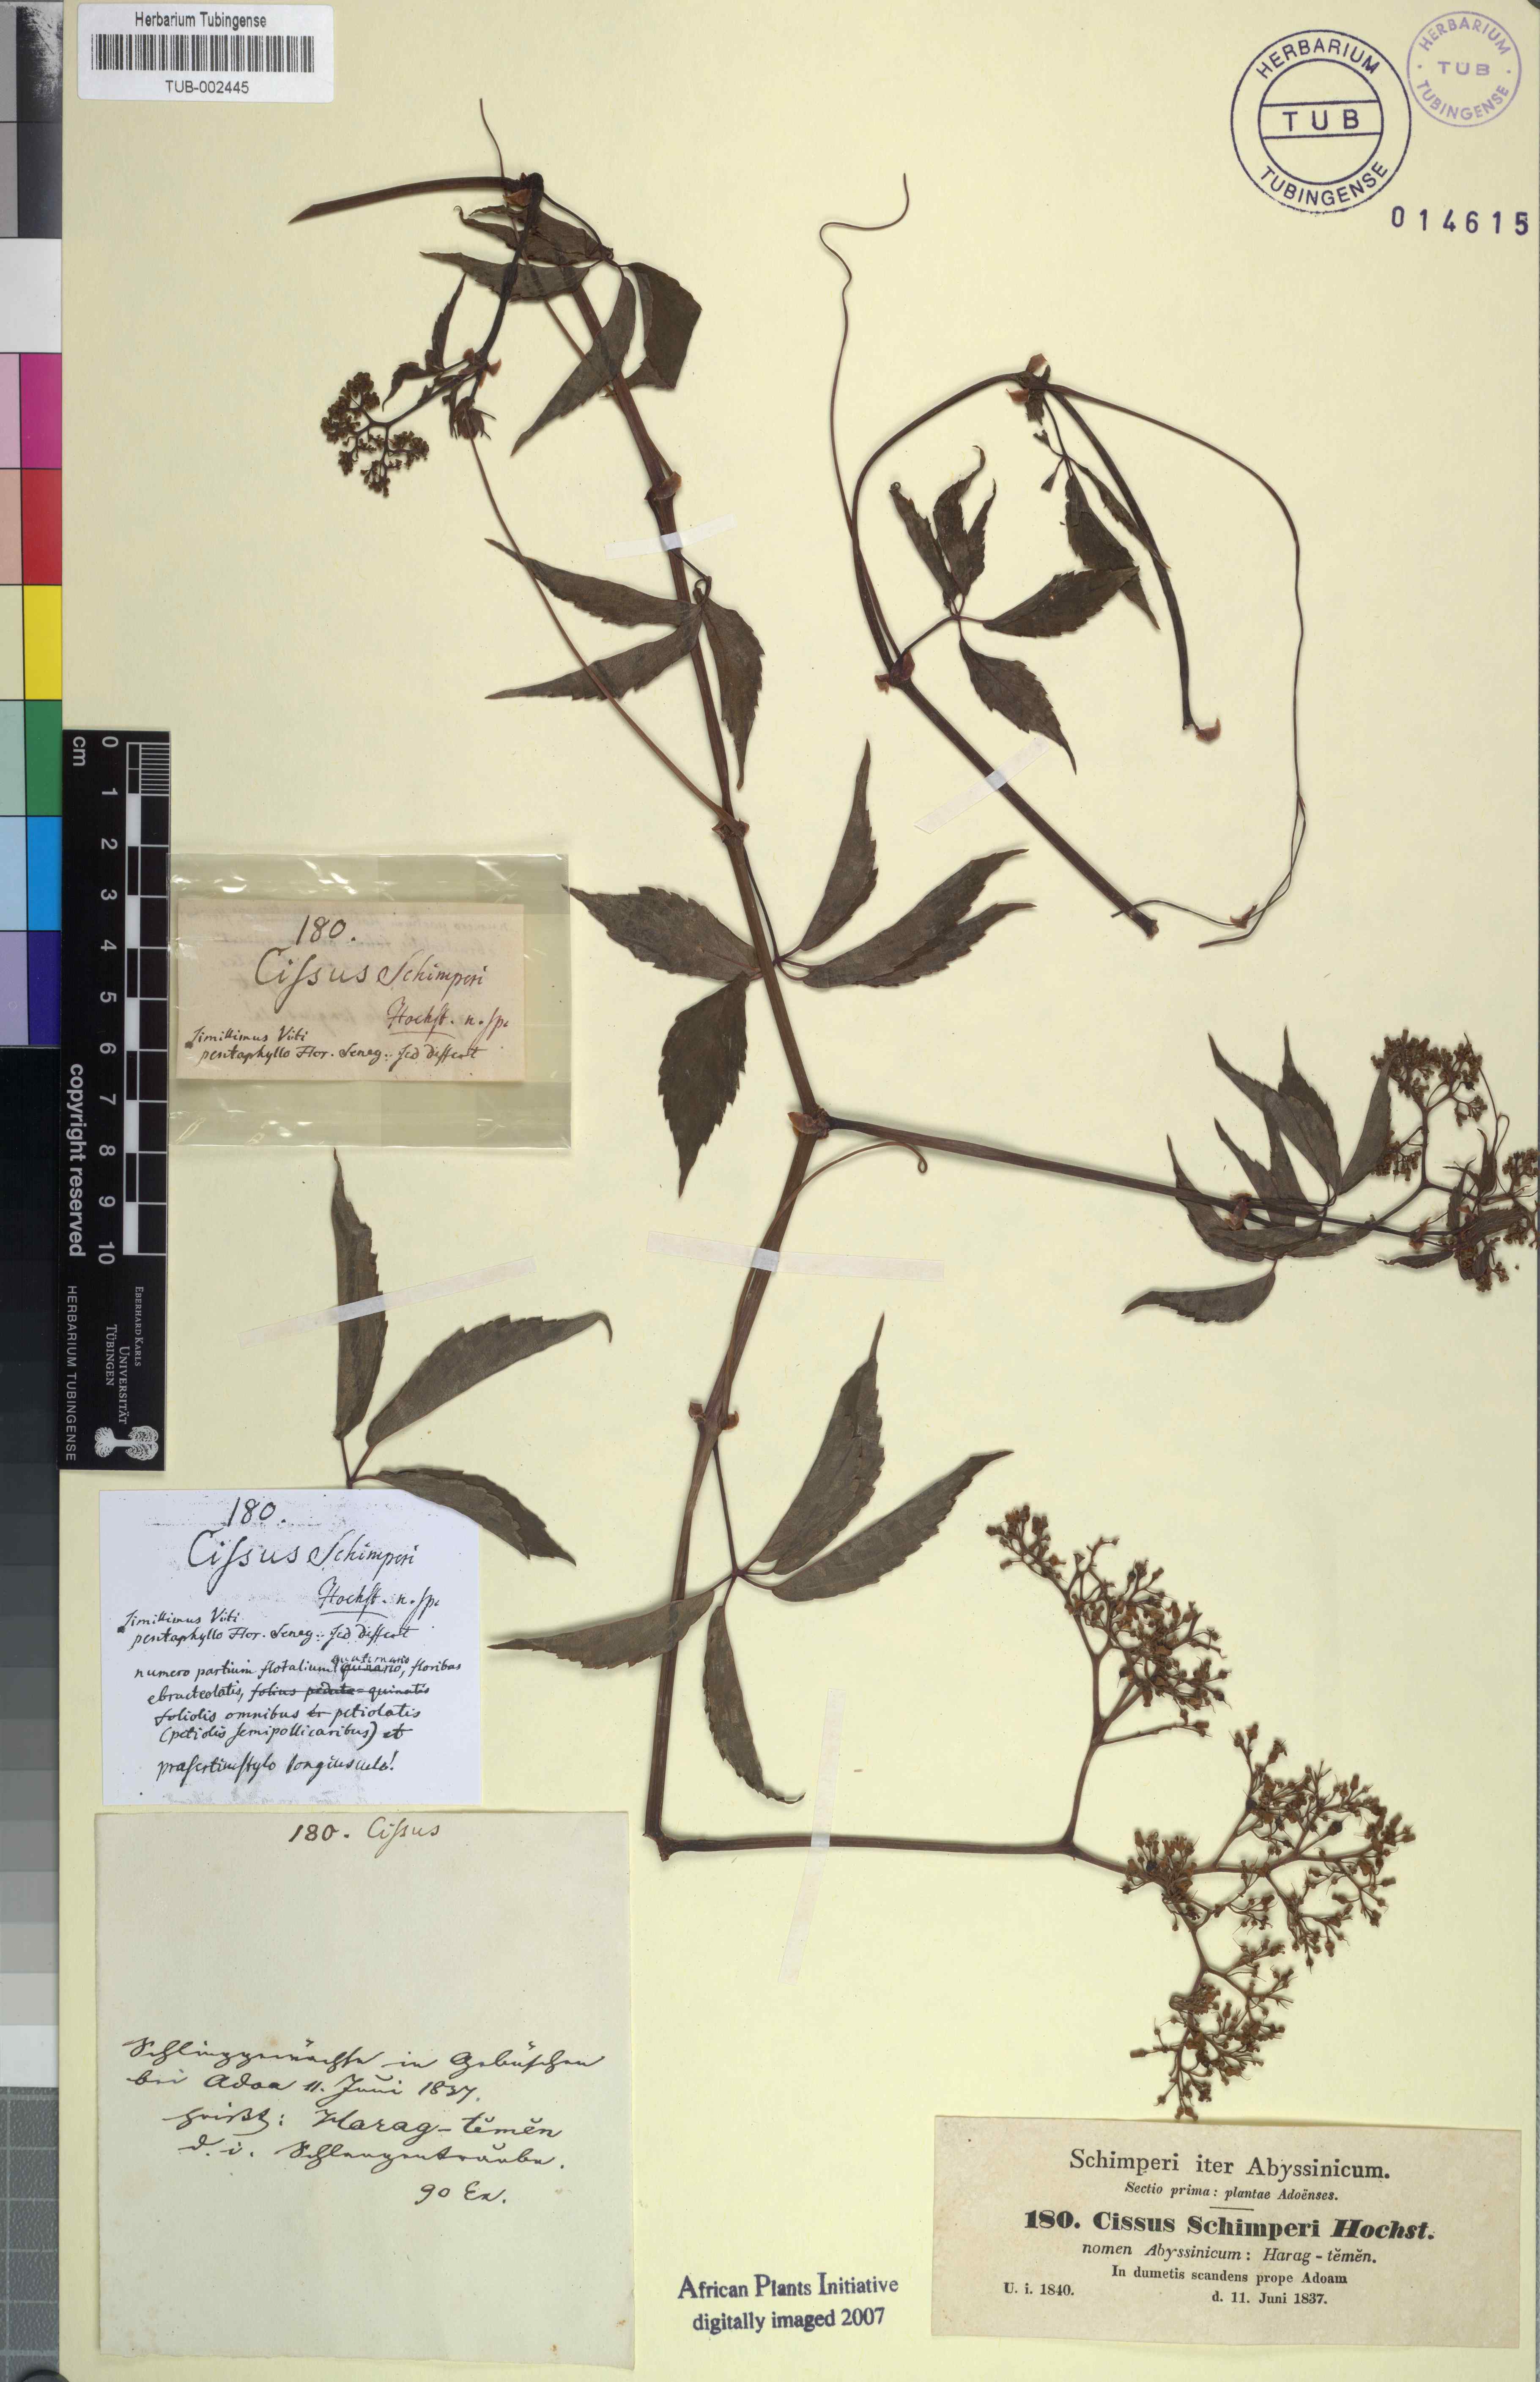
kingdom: Plantae
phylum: Tracheophyta
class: Magnoliopsida
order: Vitales
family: Vitaceae
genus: Cyphostemma
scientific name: Cyphostemma oxyphyllum
